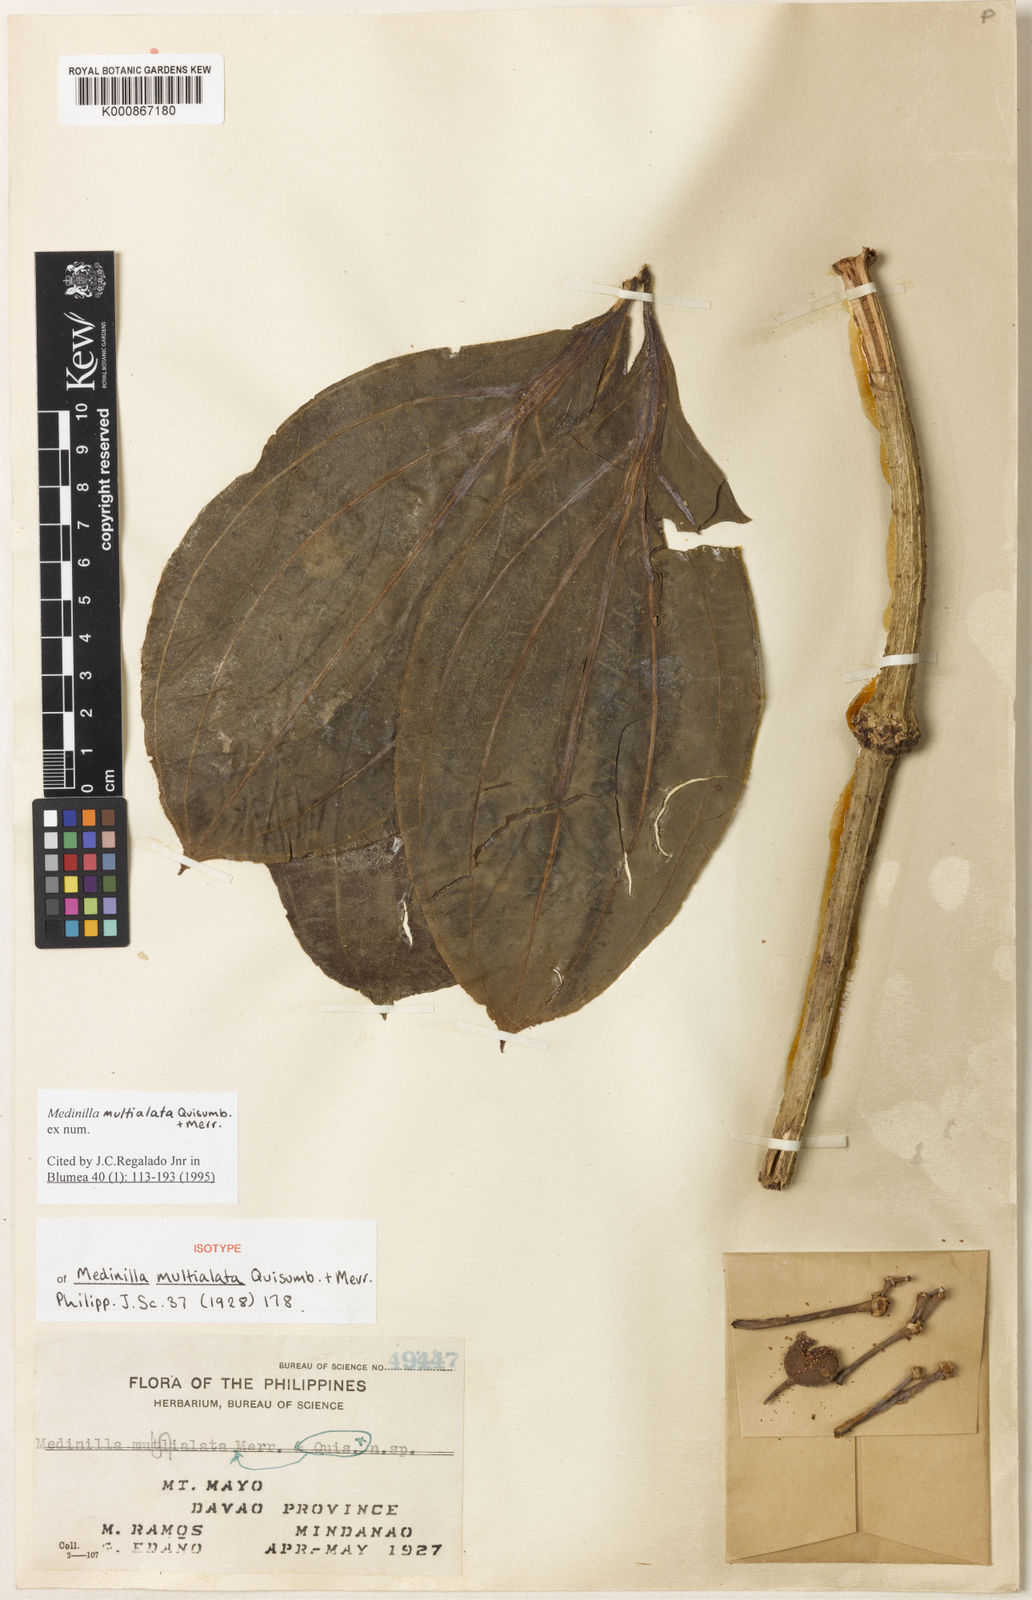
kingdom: Plantae
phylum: Tracheophyta
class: Magnoliopsida
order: Myrtales
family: Melastomataceae
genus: Medinilla
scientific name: Medinilla multialata
